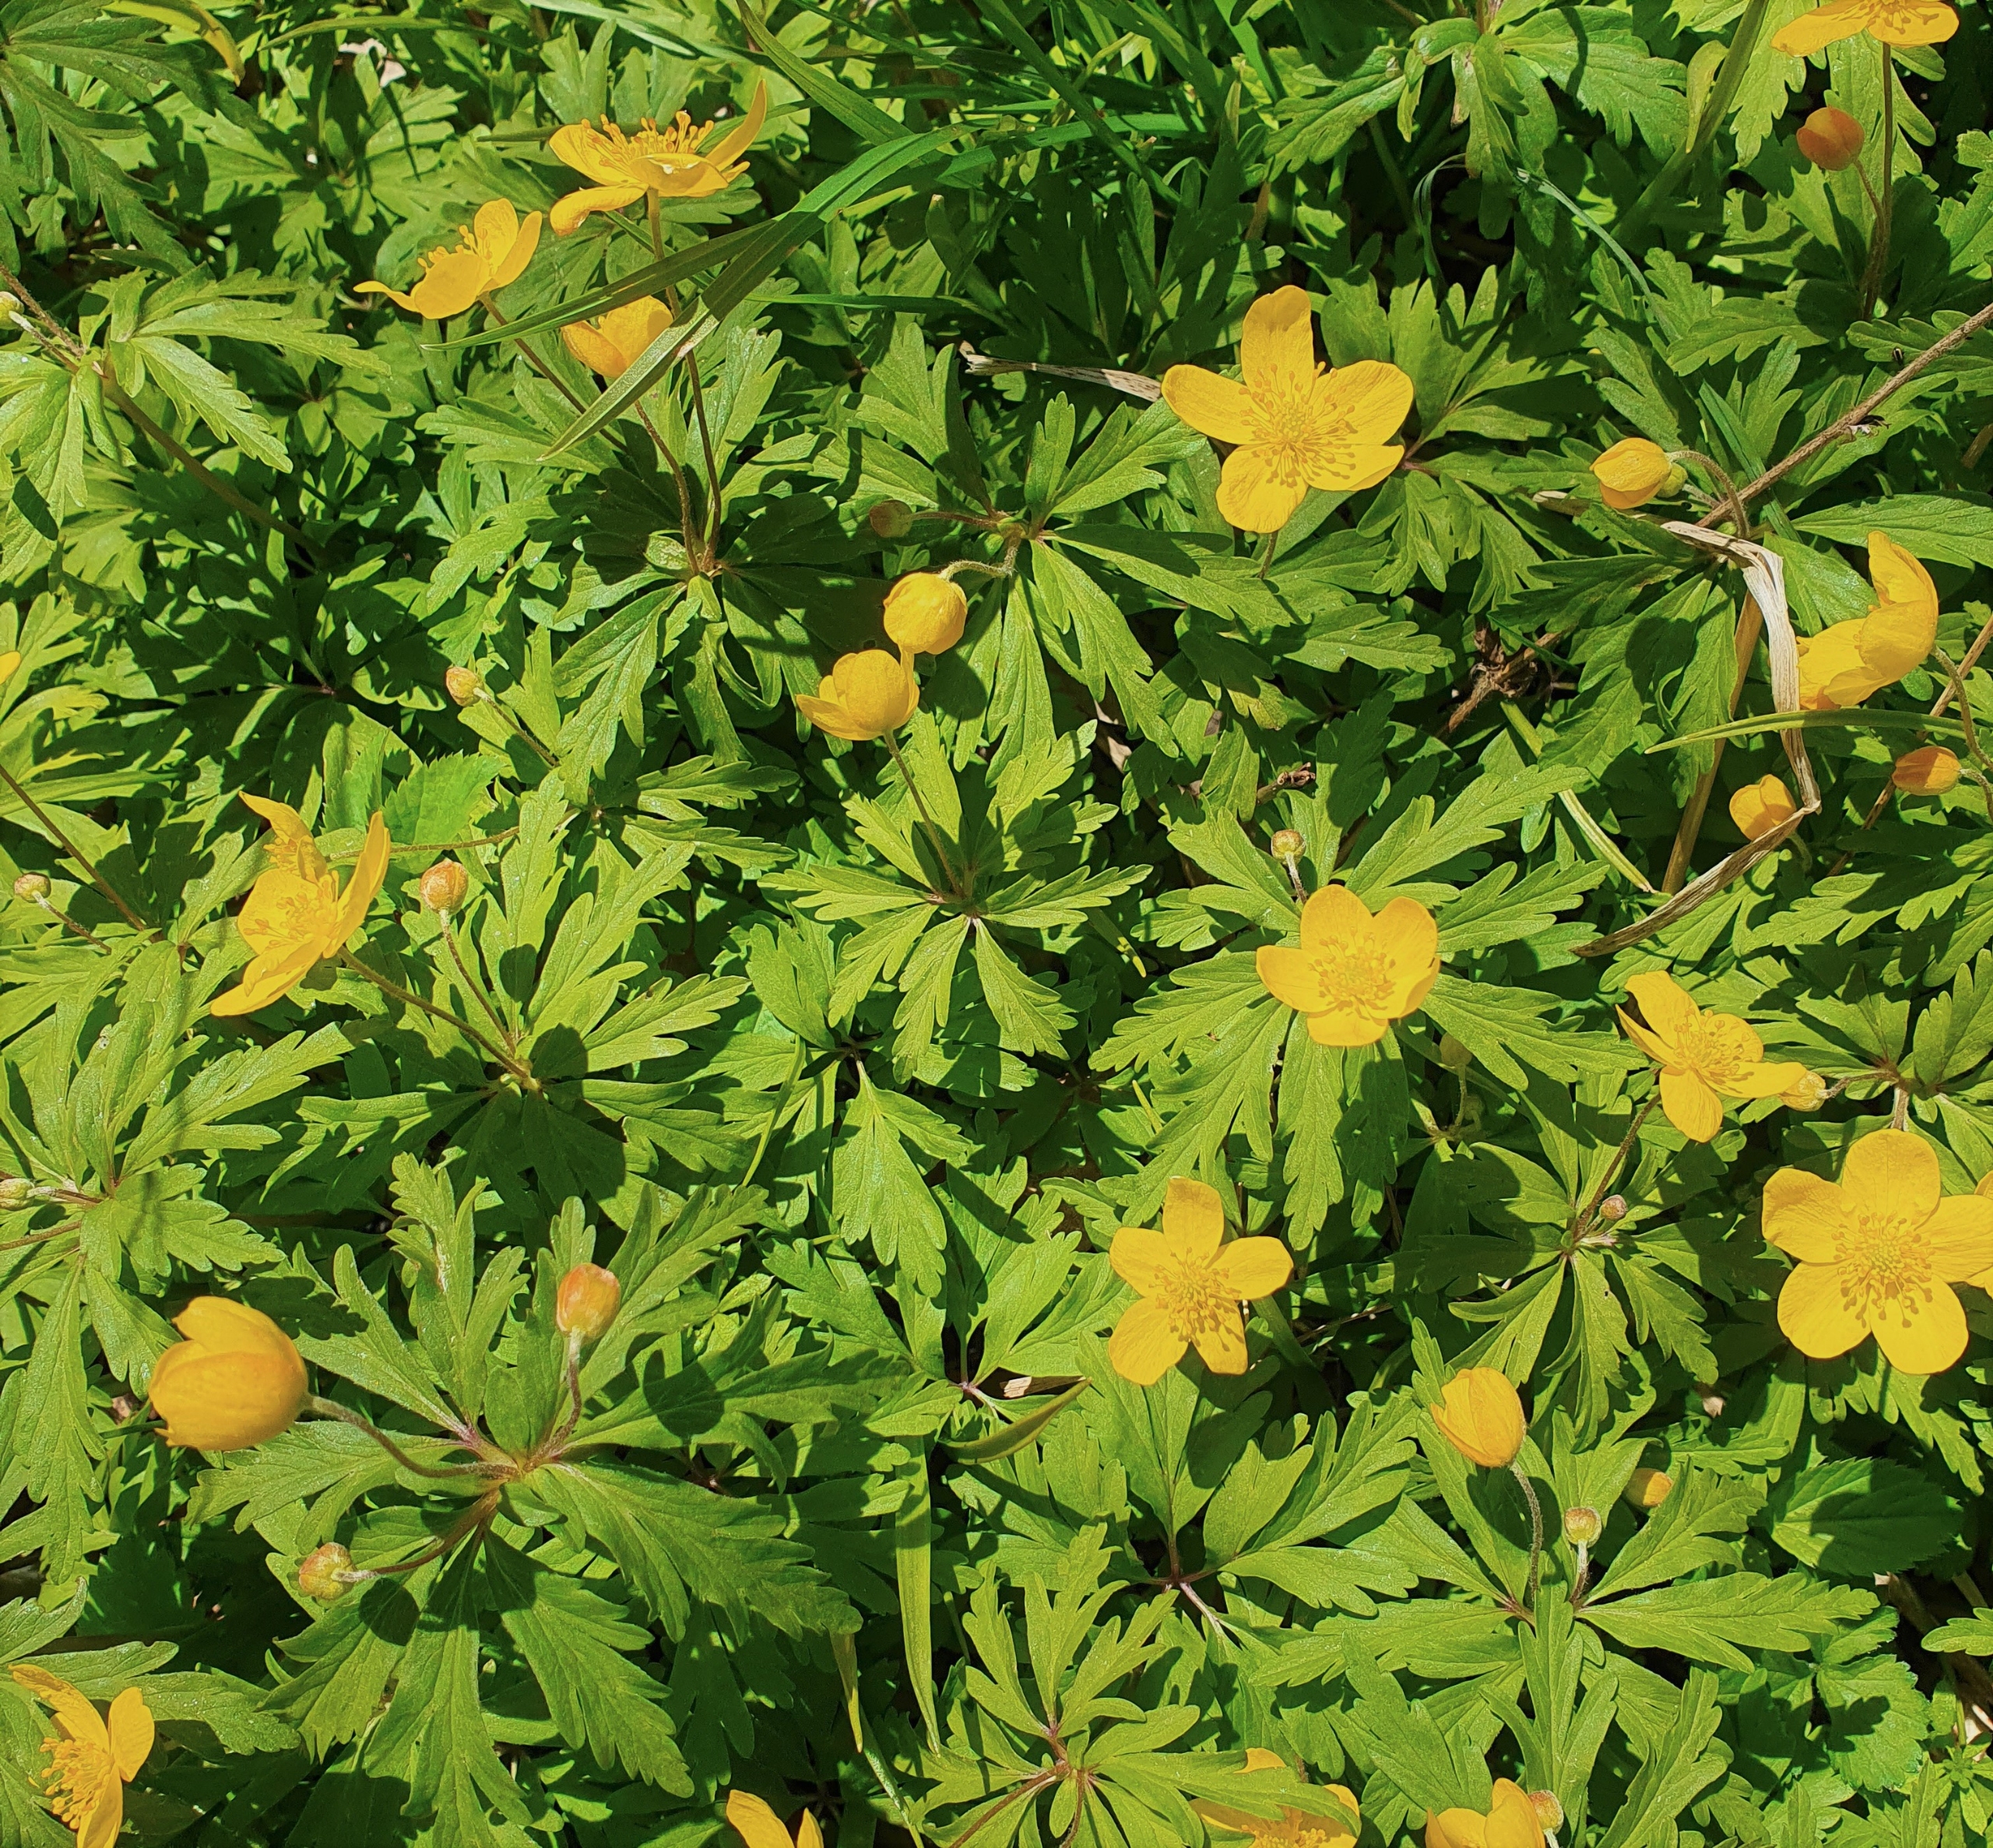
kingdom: Plantae
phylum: Tracheophyta
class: Magnoliopsida
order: Ranunculales
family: Ranunculaceae
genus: Anemone
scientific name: Anemone ranunculoides
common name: Gul anemone
